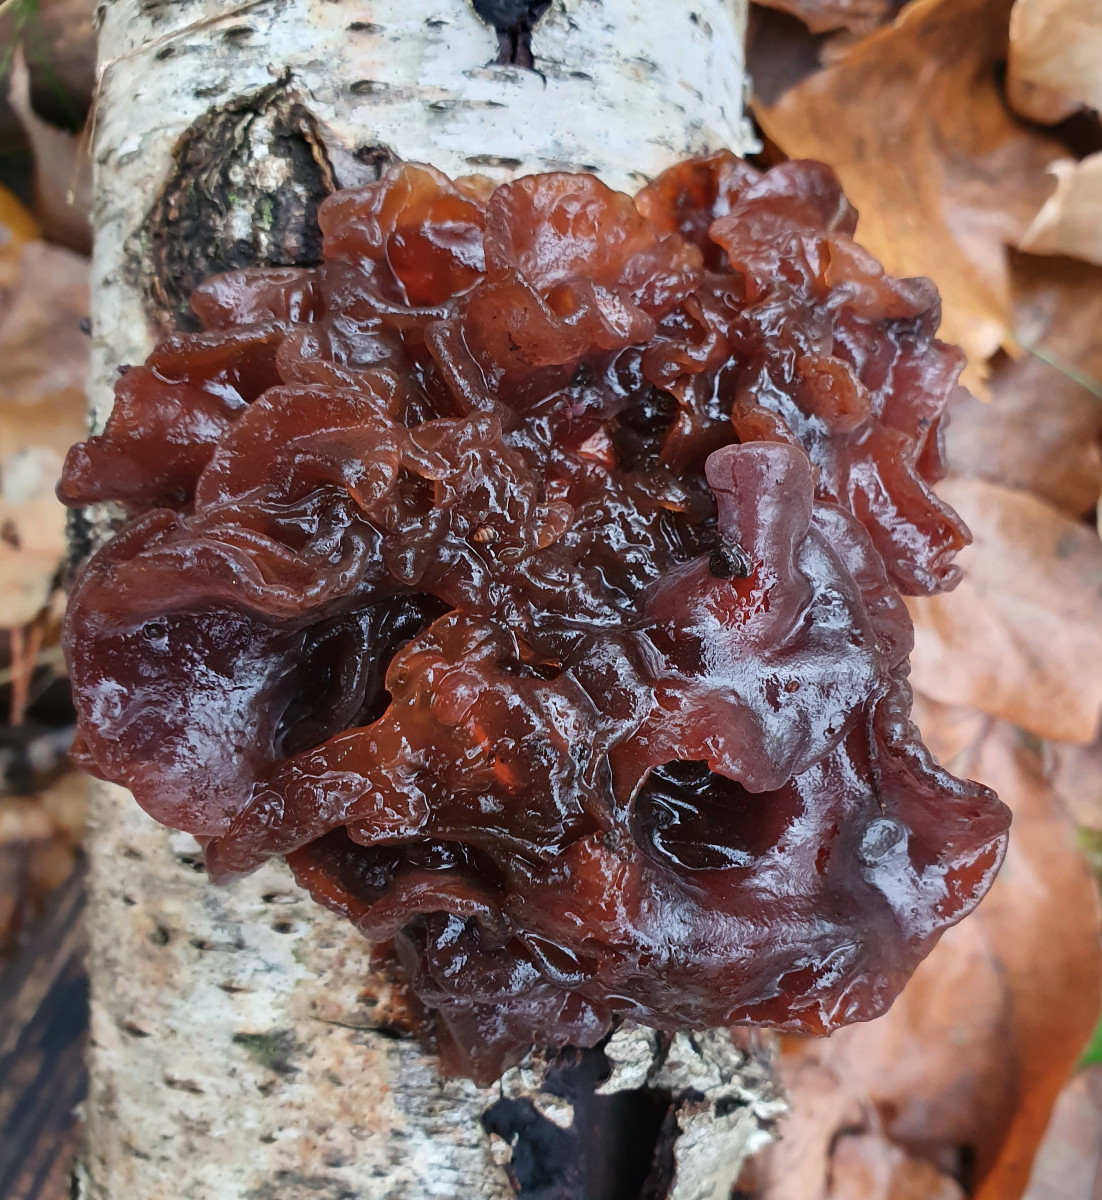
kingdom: Fungi
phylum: Basidiomycota
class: Tremellomycetes
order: Tremellales
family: Tremellaceae
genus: Phaeotremella
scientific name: Phaeotremella frondosa
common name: kæmpe-bævresvamp
